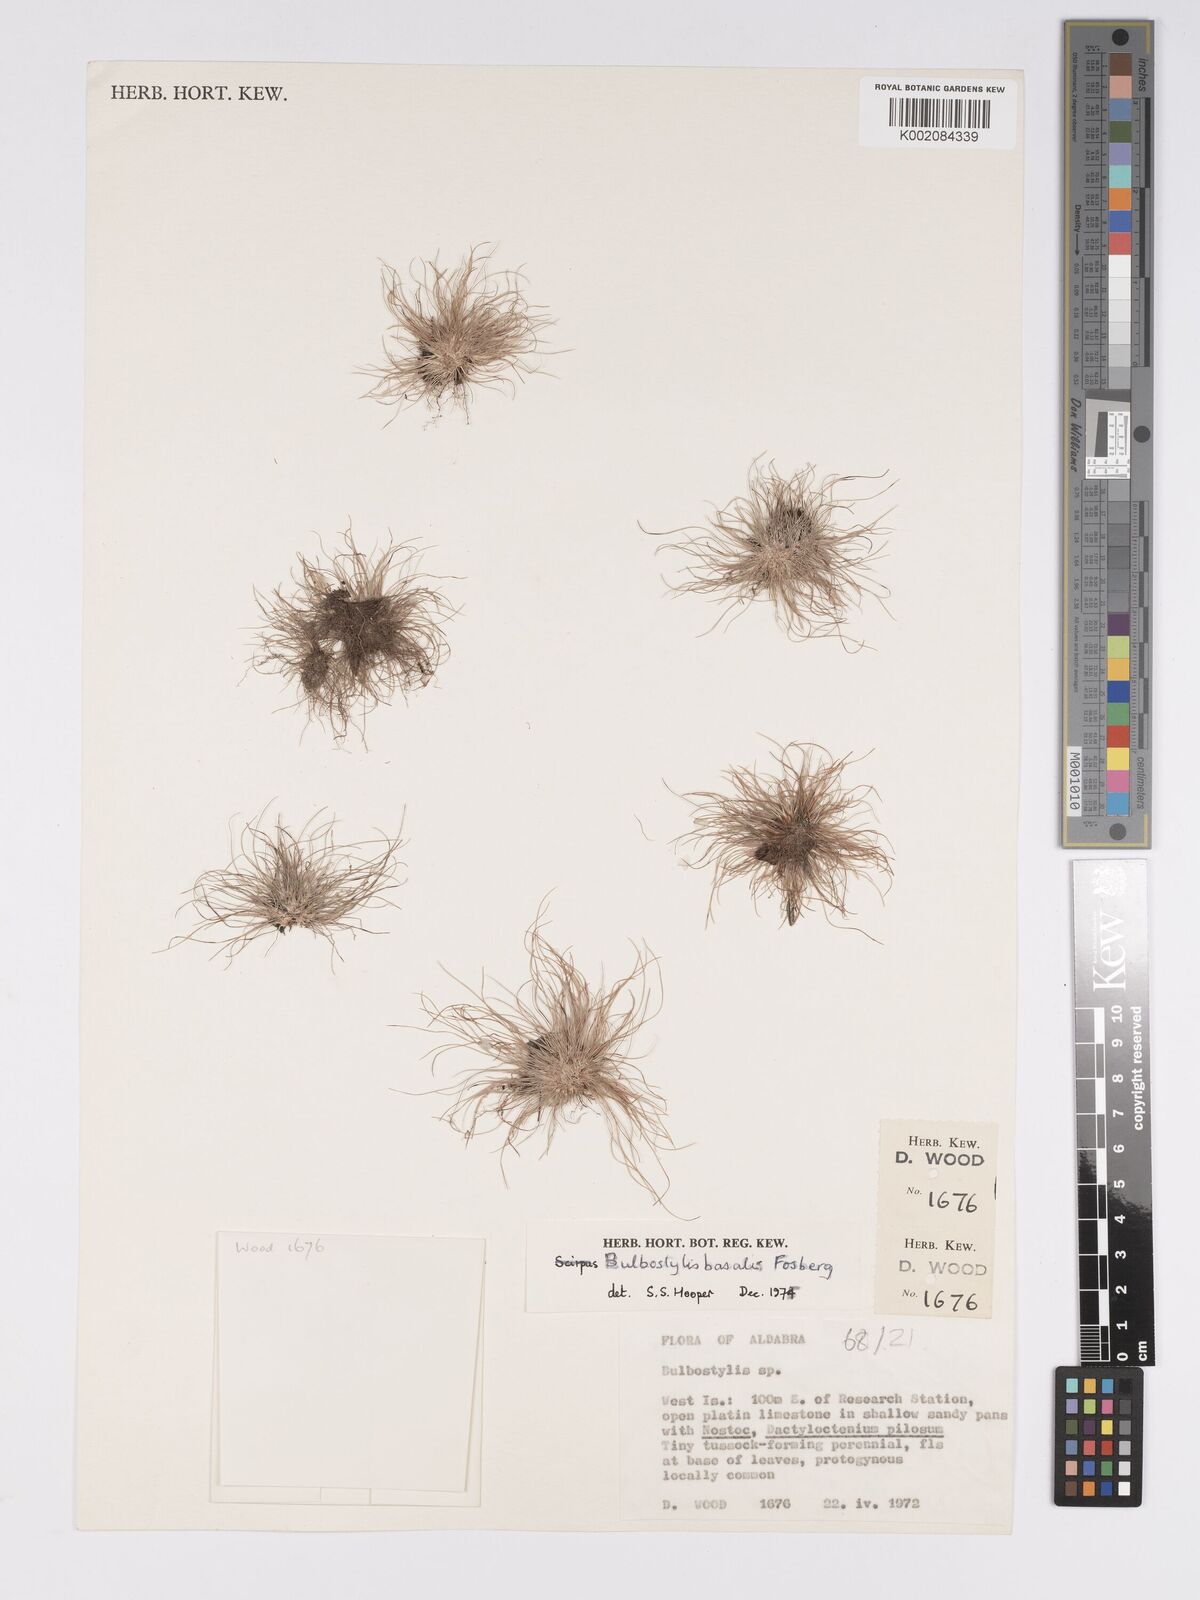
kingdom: Plantae
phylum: Tracheophyta
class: Liliopsida
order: Poales
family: Cyperaceae
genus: Bulbostylis
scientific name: Bulbostylis basalis
